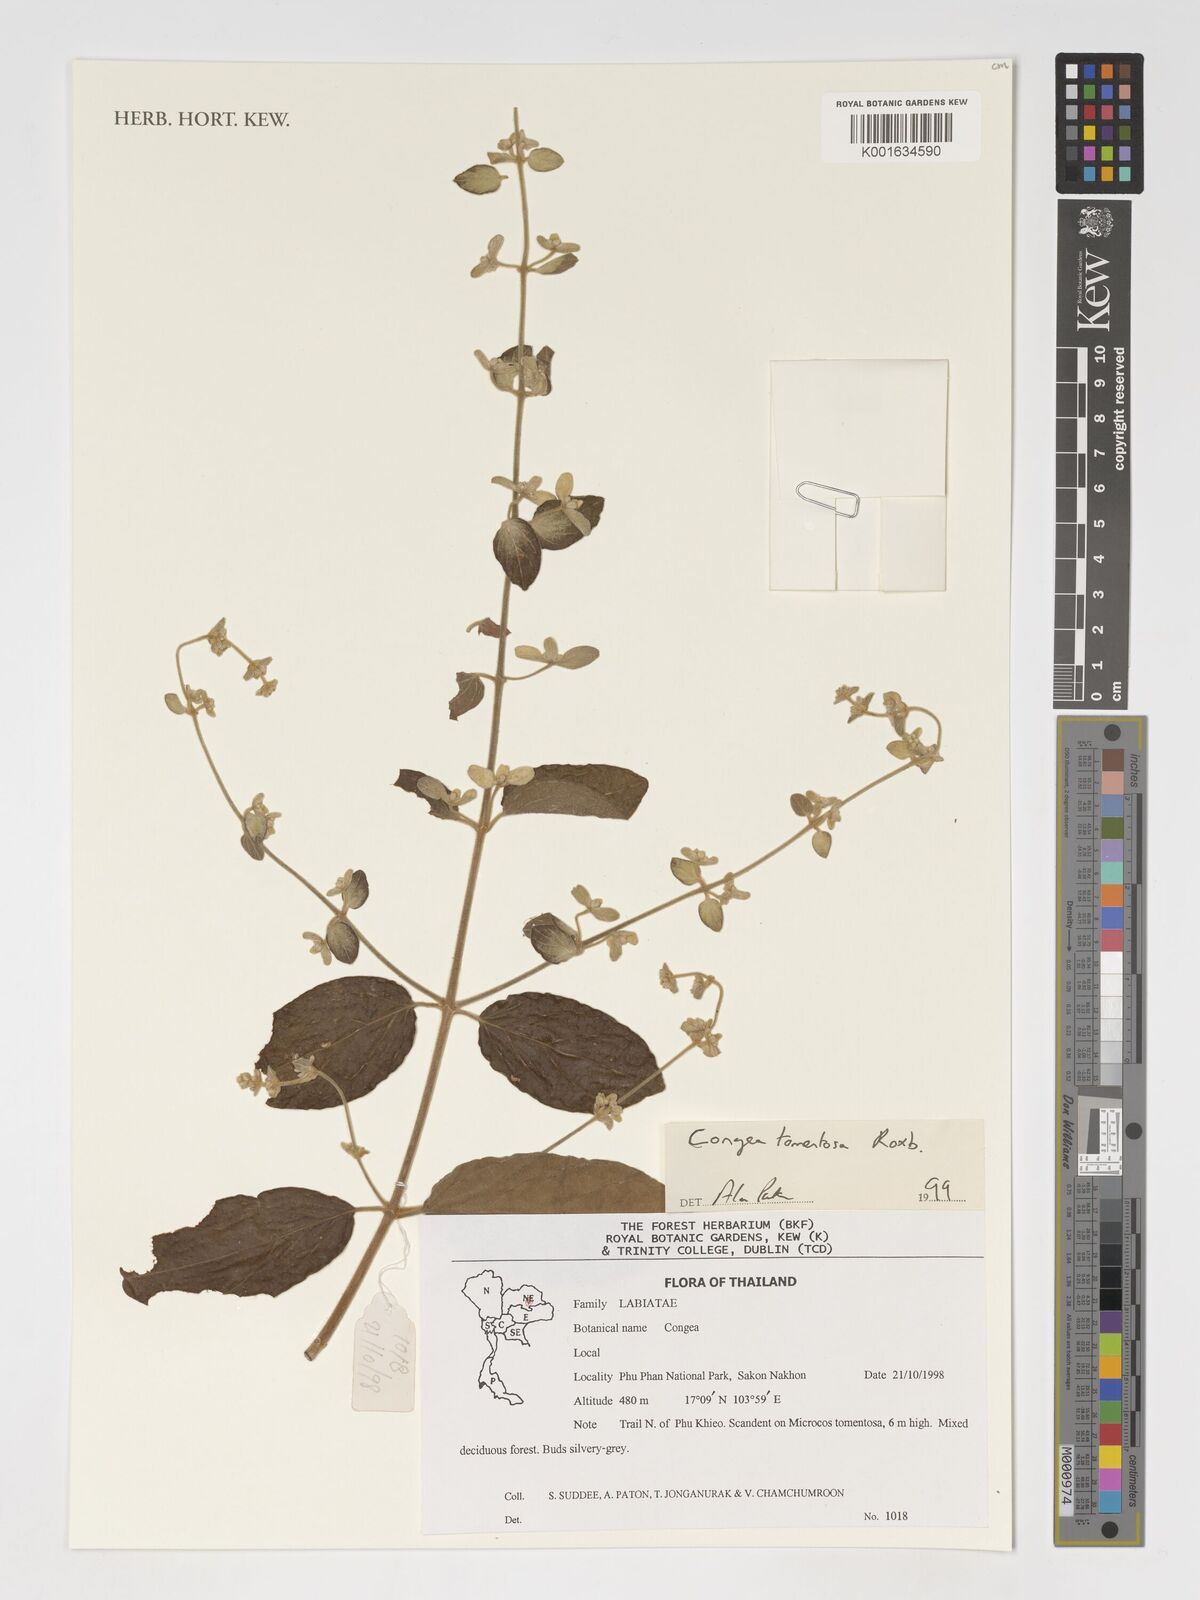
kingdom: Plantae
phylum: Tracheophyta
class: Magnoliopsida
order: Lamiales
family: Lamiaceae
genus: Congea
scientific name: Congea tomentosa
